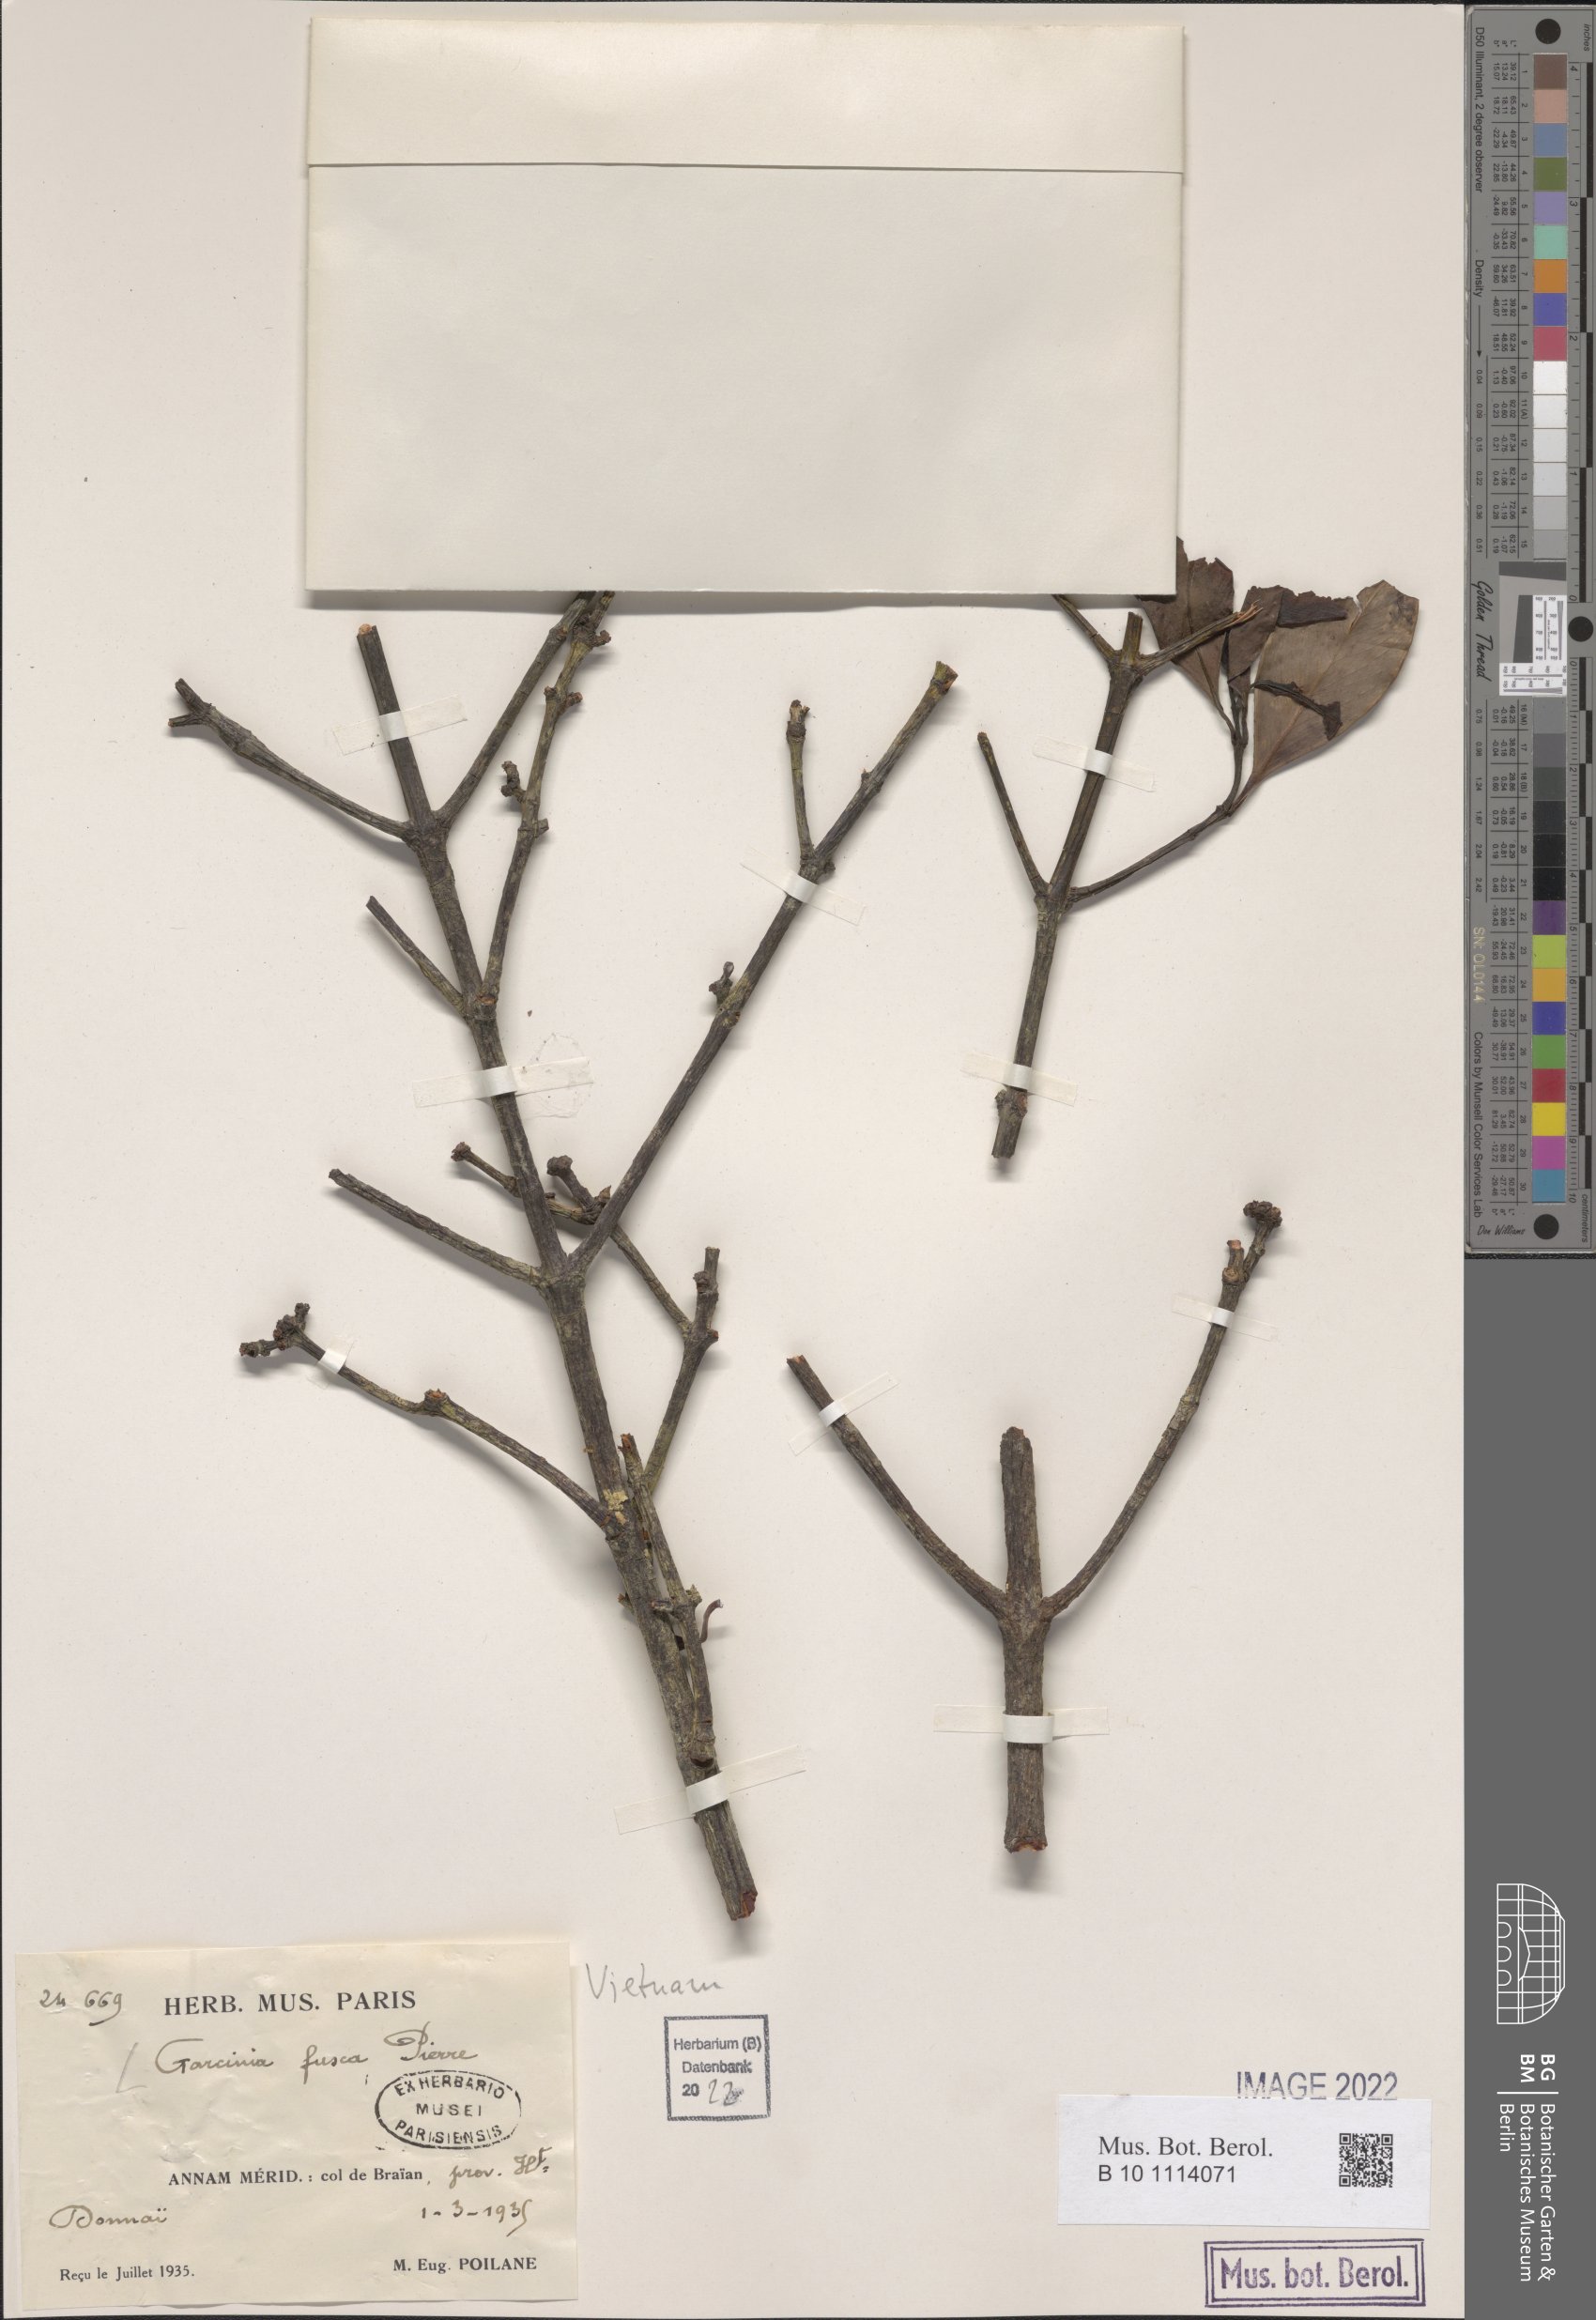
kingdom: Plantae
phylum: Tracheophyta
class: Magnoliopsida
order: Malpighiales
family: Clusiaceae
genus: Garcinia
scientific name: Garcinia fusca
